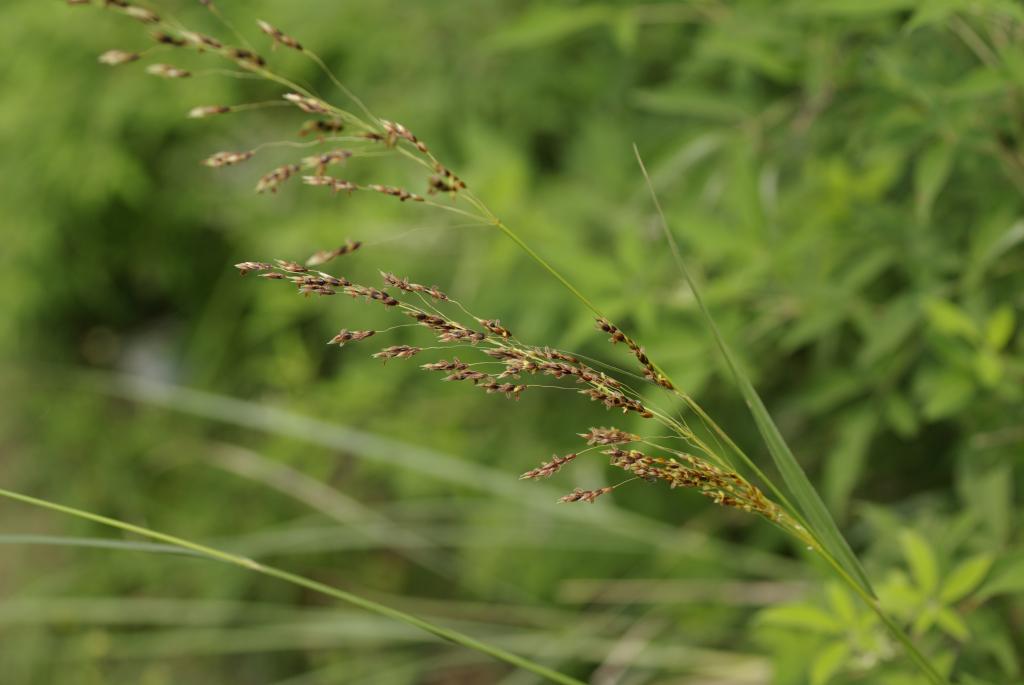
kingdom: Plantae
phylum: Tracheophyta
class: Liliopsida
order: Poales
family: Poaceae
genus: Sorghum
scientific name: Sorghum nitidum
